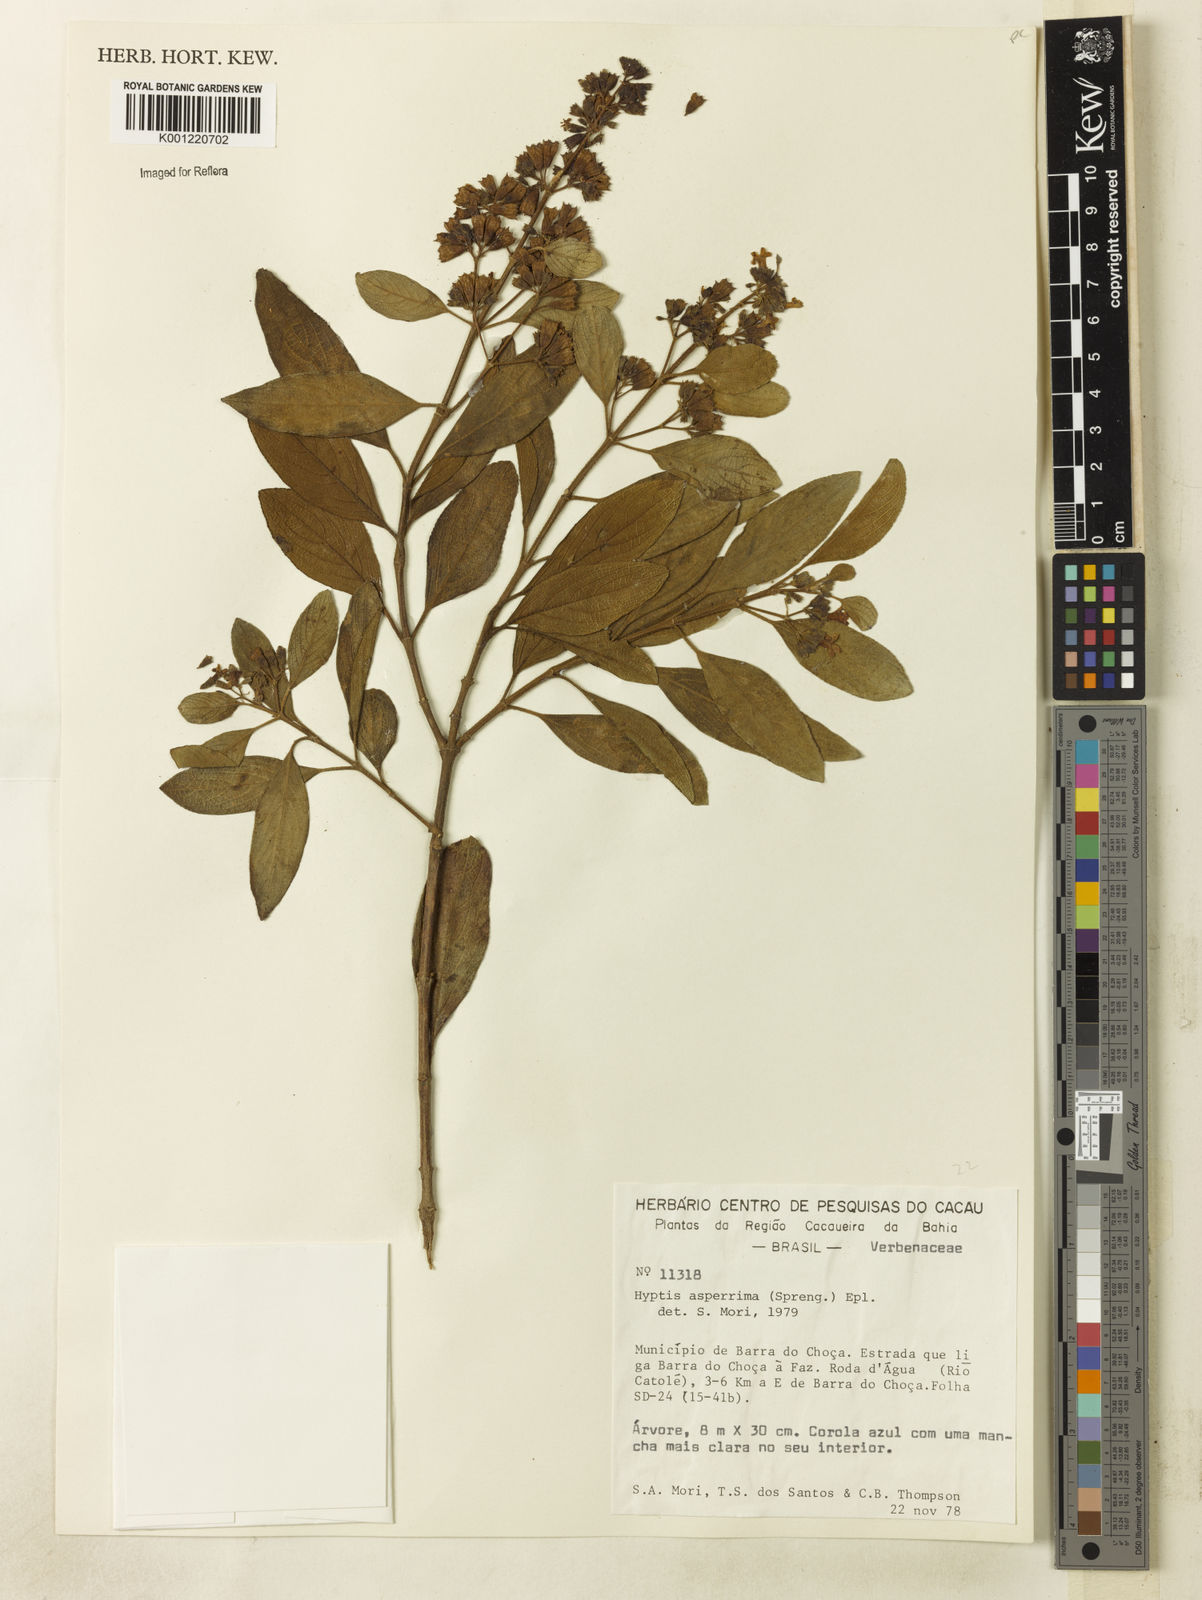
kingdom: Plantae
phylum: Tracheophyta
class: Magnoliopsida
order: Lamiales
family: Lamiaceae
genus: Hyptidendron
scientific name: Hyptidendron asperrimum
